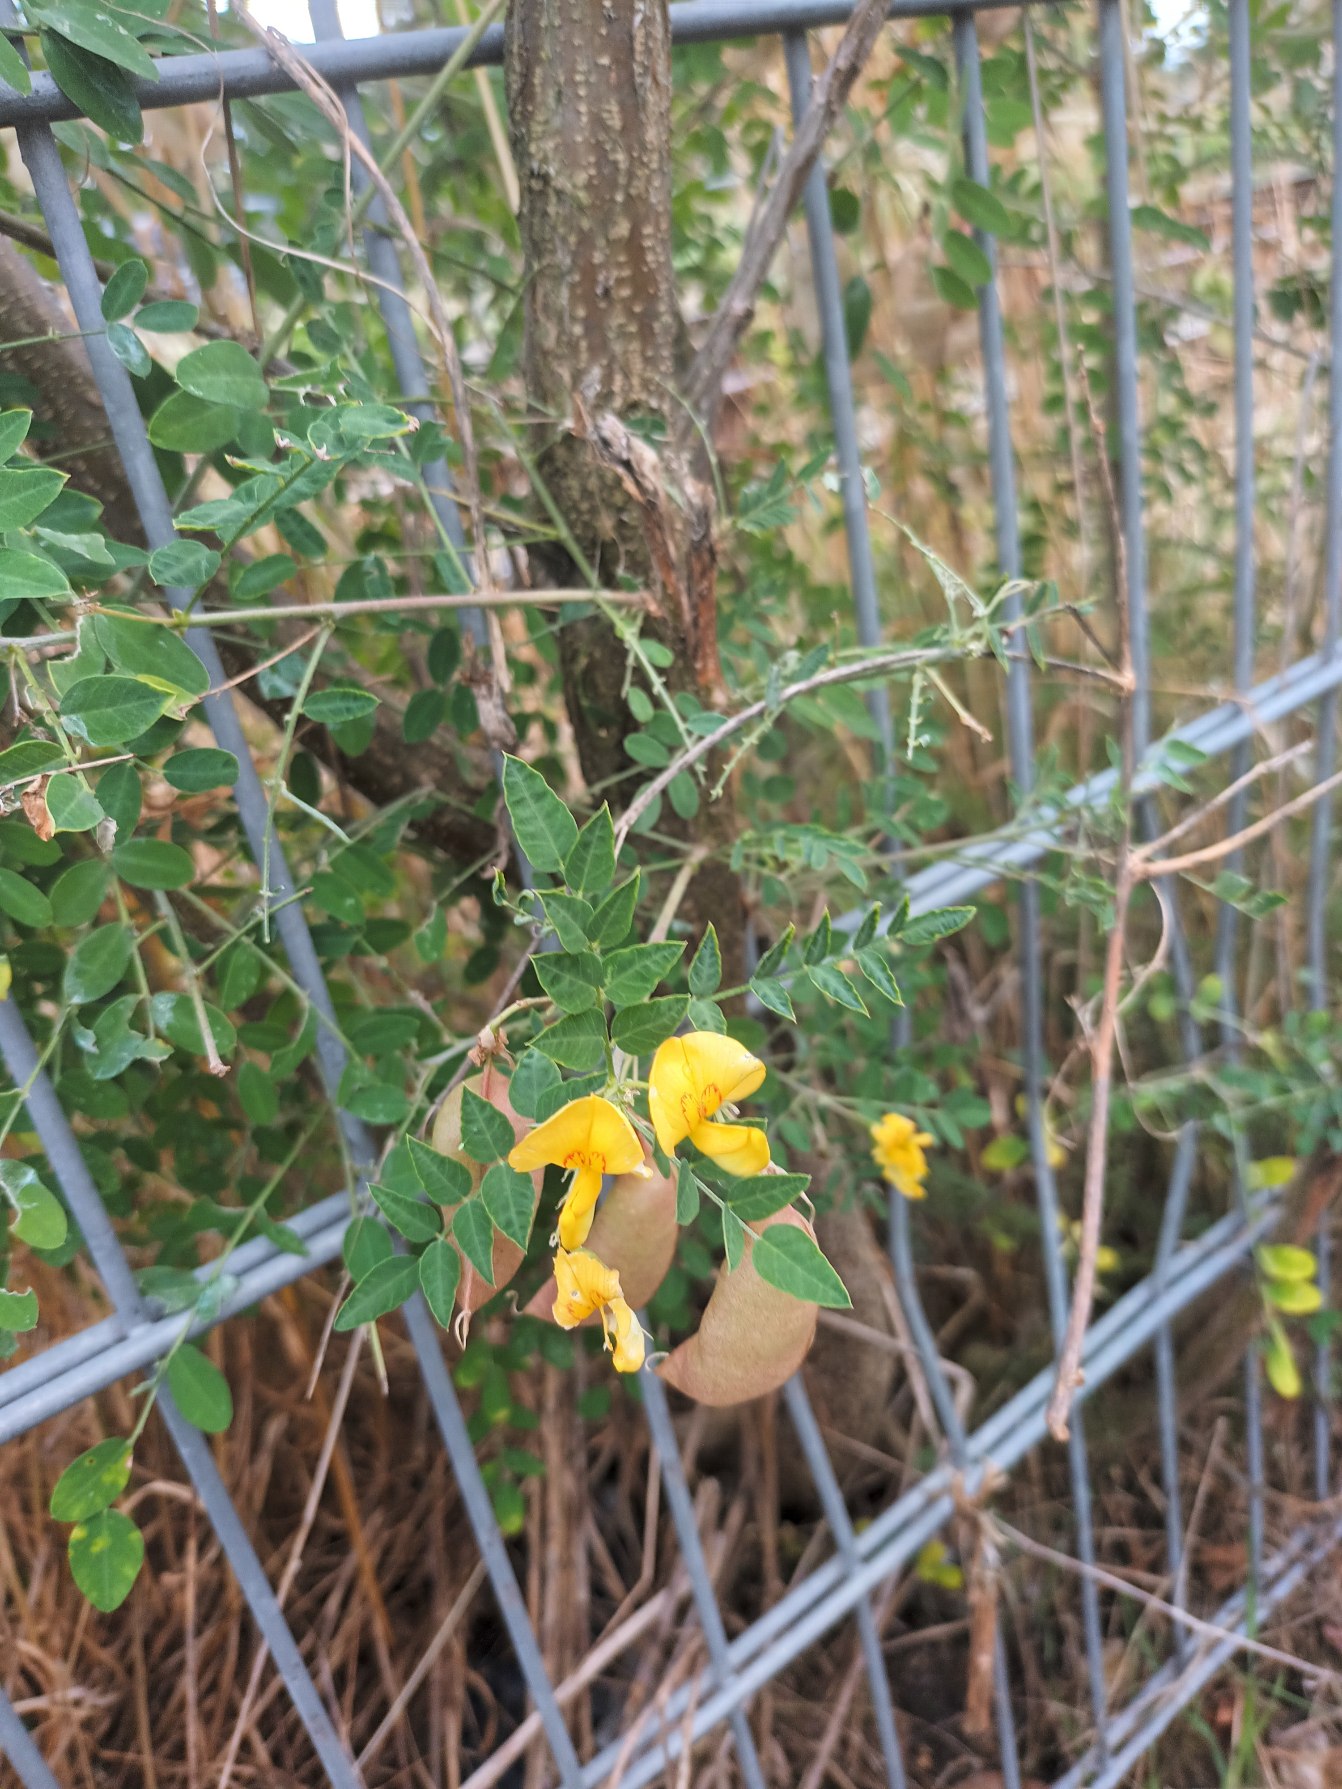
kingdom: Plantae
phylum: Tracheophyta
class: Magnoliopsida
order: Fabales
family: Fabaceae
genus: Colutea
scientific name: Colutea arborescens
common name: Almindelig blærebælg
